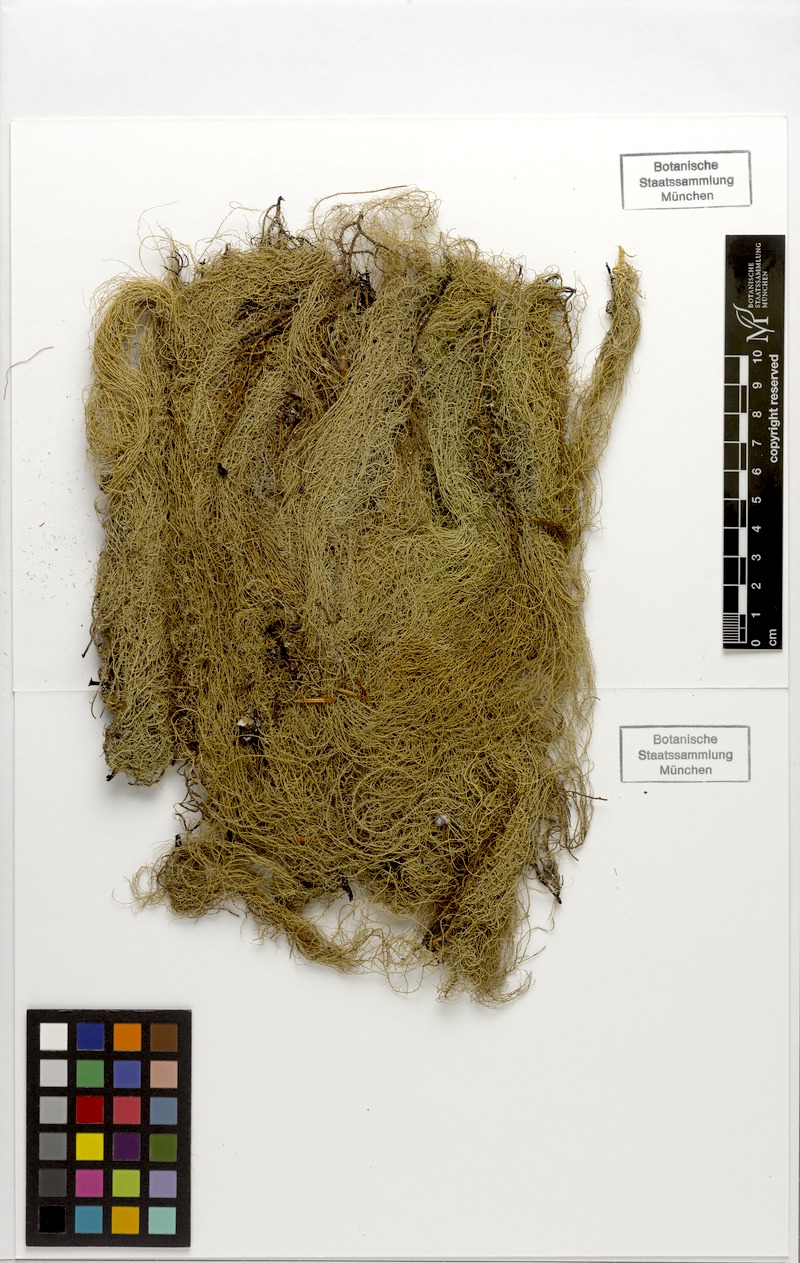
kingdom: Fungi
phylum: Ascomycota
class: Lecanoromycetes
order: Lecanorales
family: Parmeliaceae
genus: Usnea
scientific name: Usnea dasopoga
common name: Fishbone beard lichen
